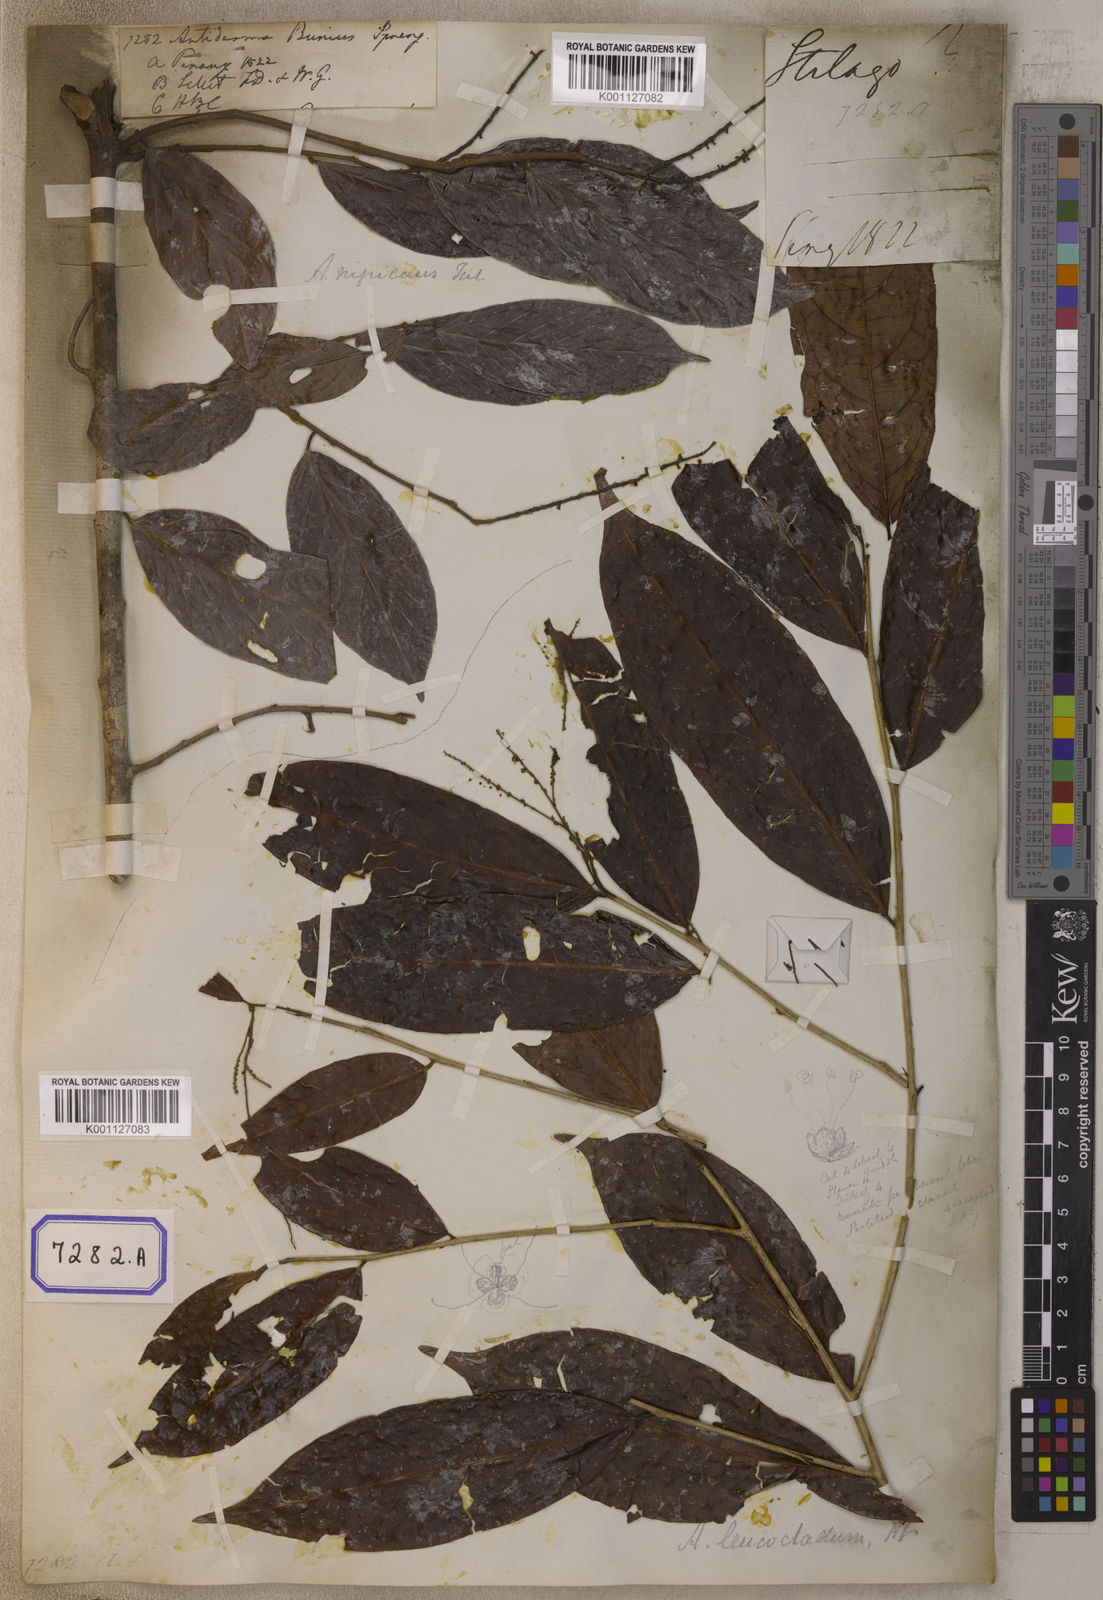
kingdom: Plantae
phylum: Tracheophyta
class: Magnoliopsida
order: Malpighiales
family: Phyllanthaceae
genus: Antidesma
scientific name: Antidesma nigricans
